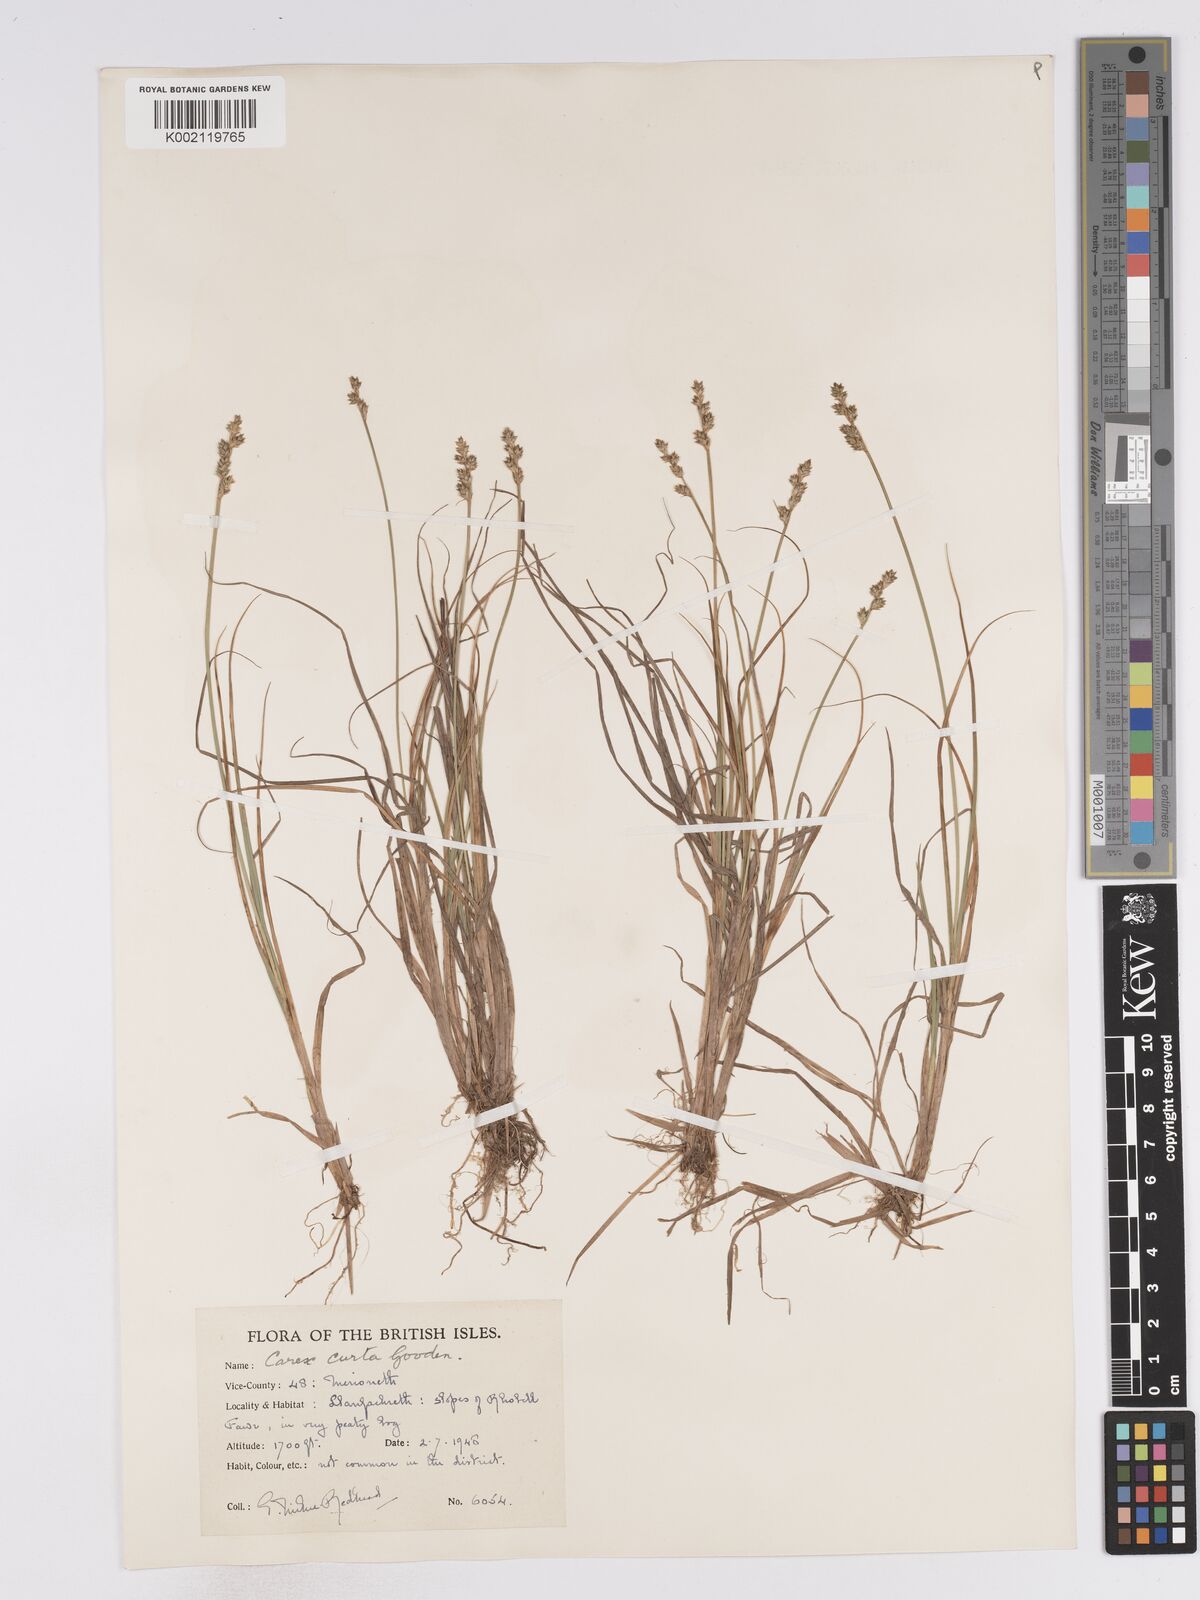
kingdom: Plantae
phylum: Tracheophyta
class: Liliopsida
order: Poales
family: Cyperaceae
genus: Carex
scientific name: Carex curta
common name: White sedge
